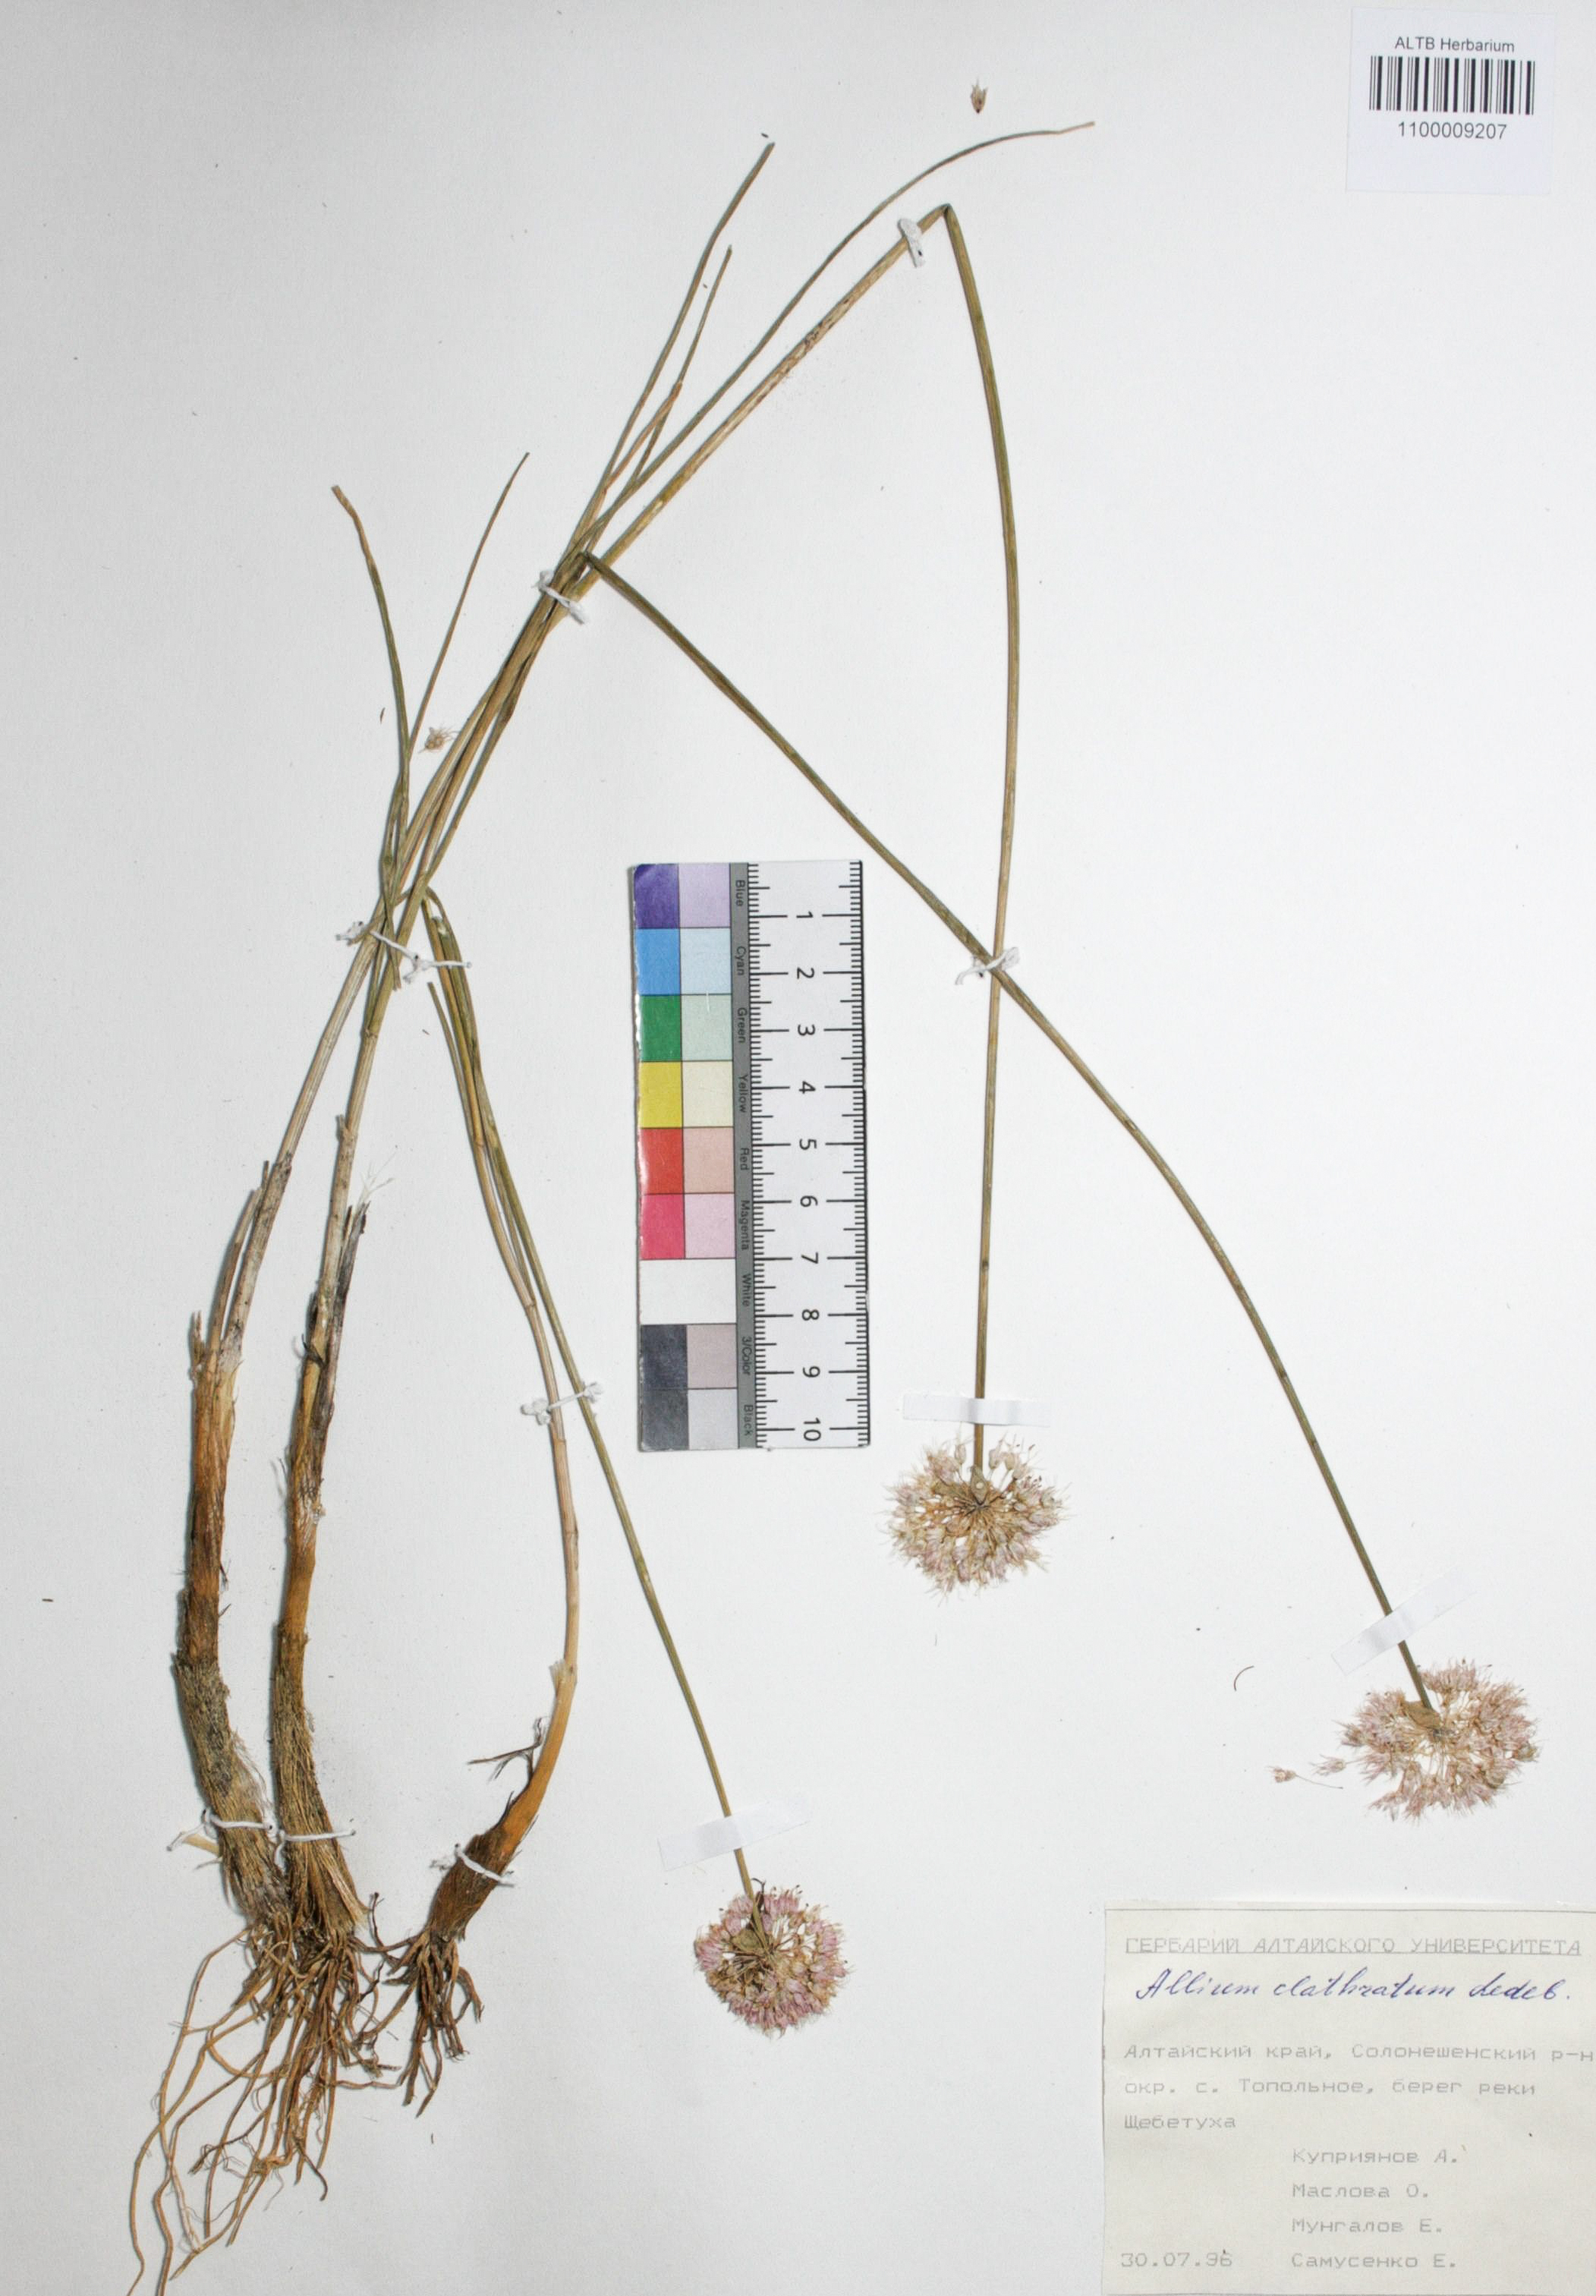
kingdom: Plantae
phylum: Tracheophyta
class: Liliopsida
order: Asparagales
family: Amaryllidaceae
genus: Allium
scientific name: Allium clathratum
